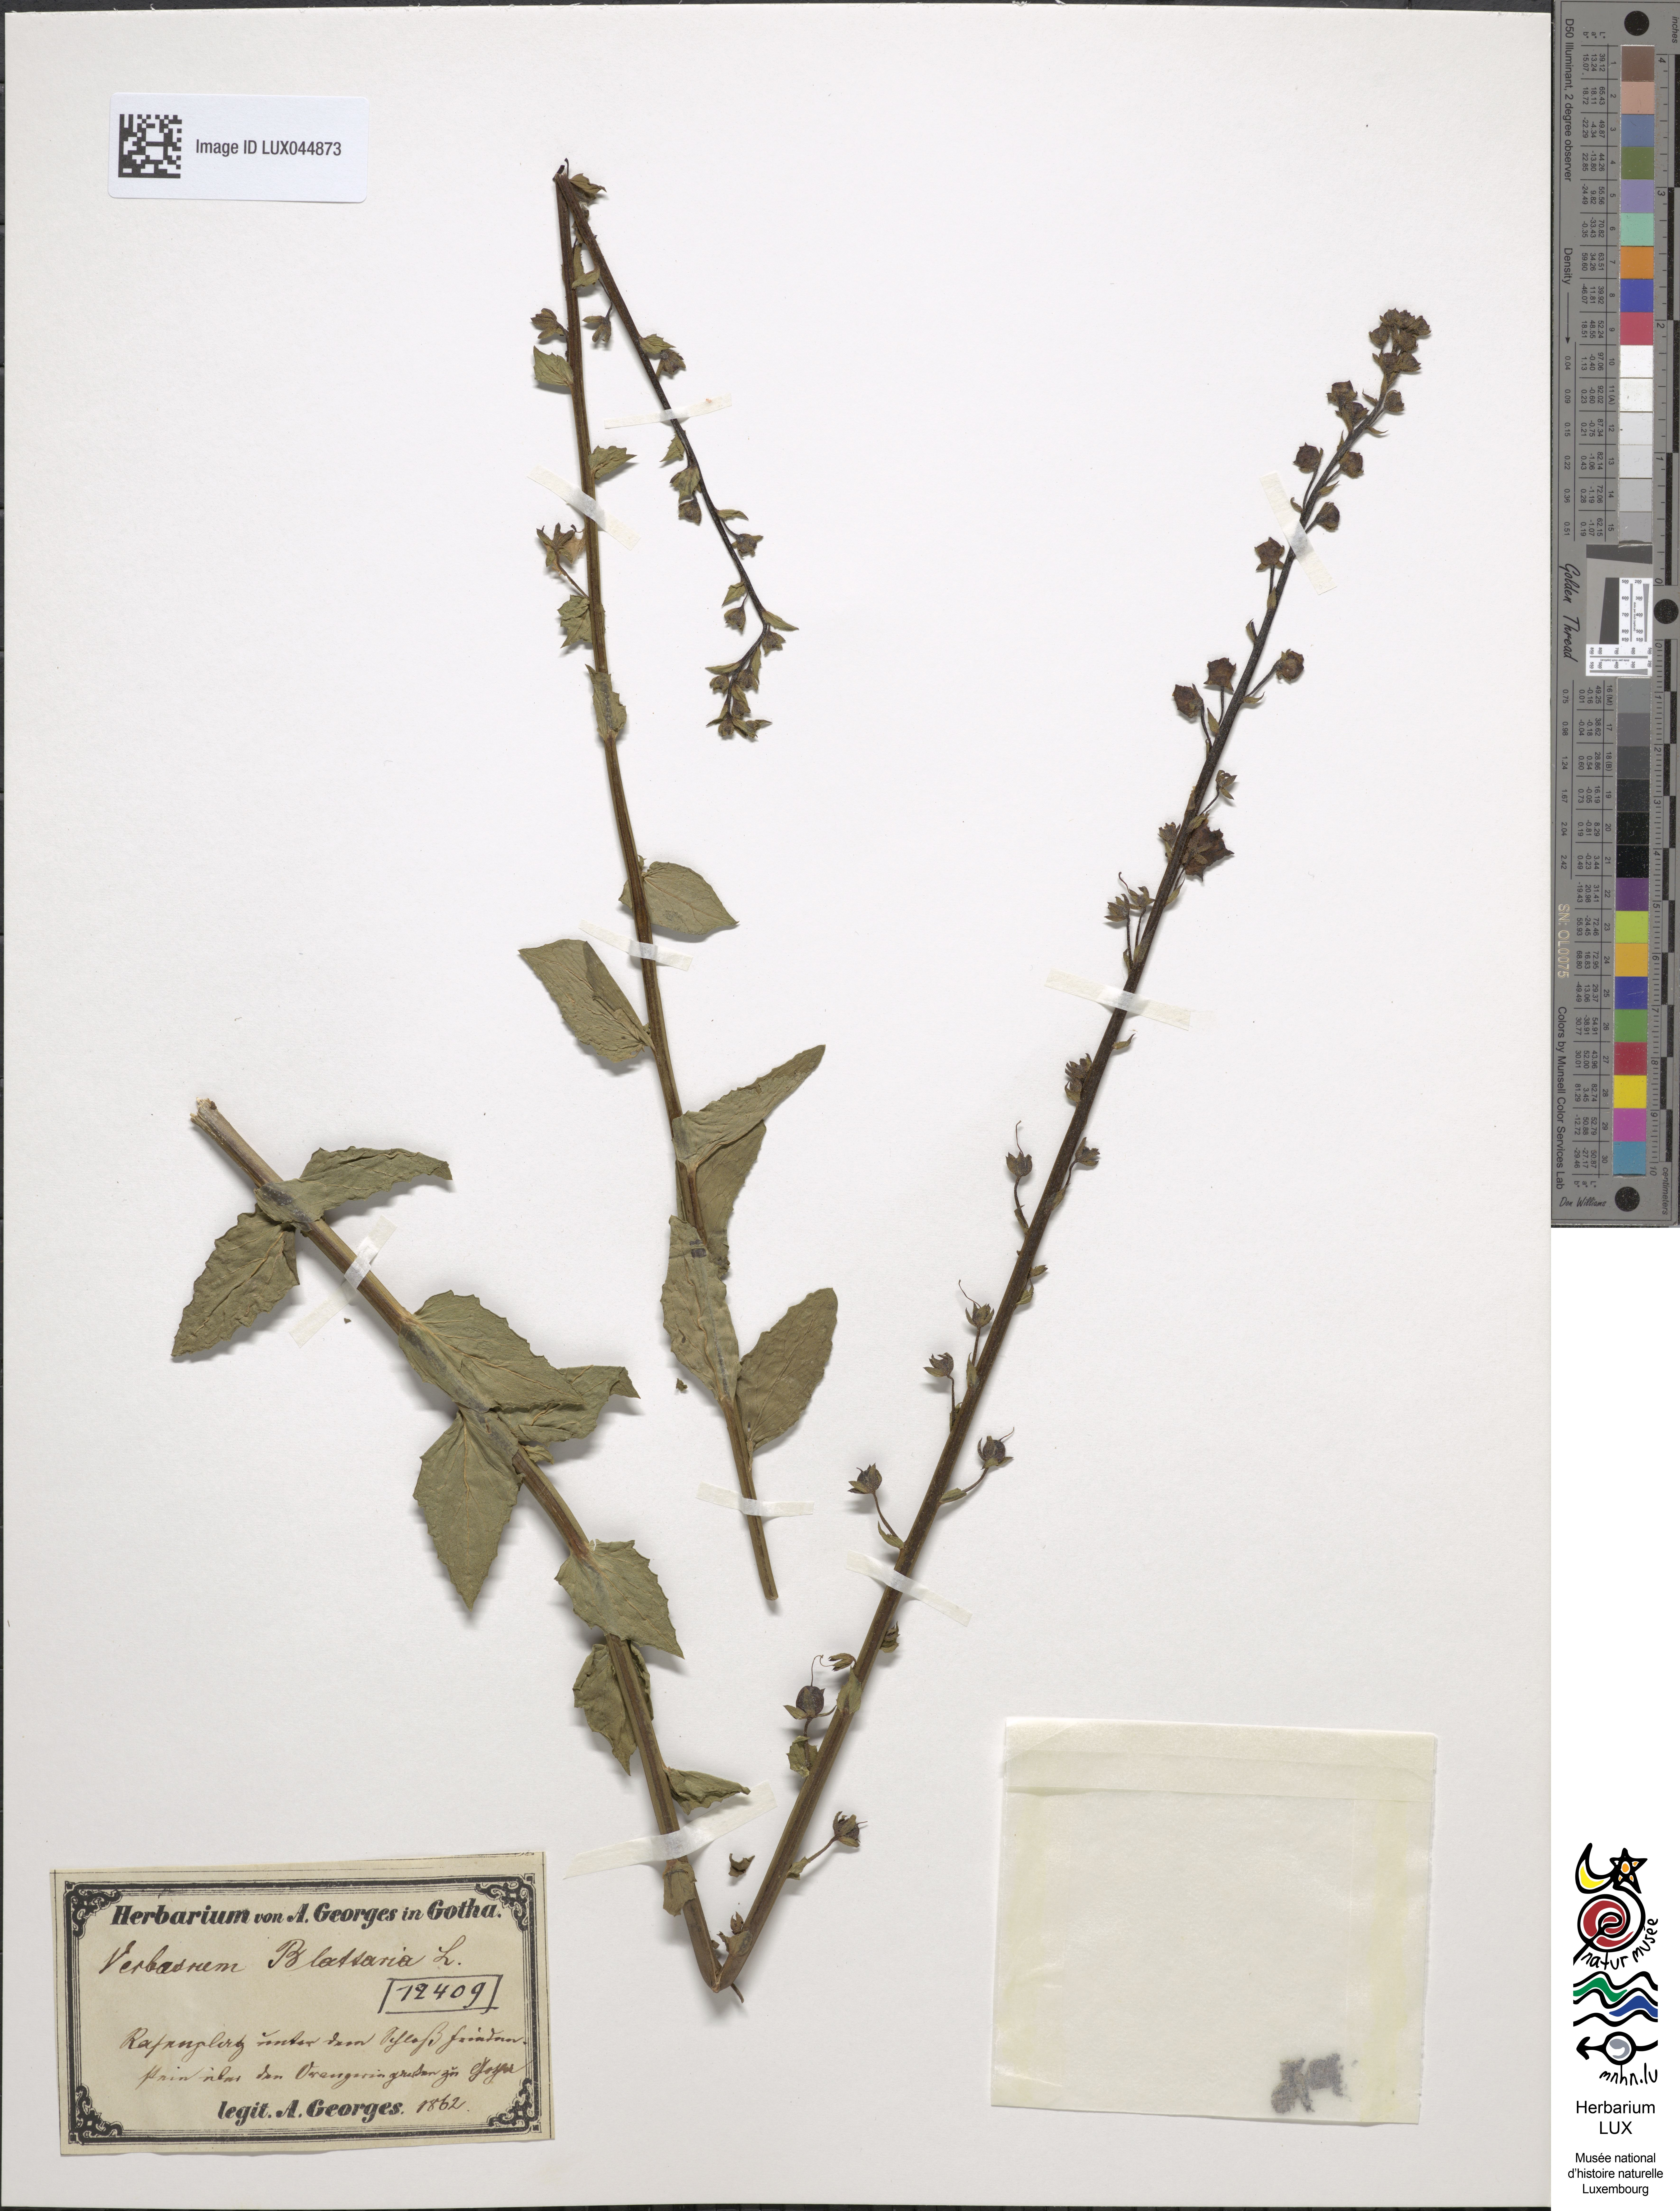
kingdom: Plantae
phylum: Tracheophyta
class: Magnoliopsida
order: Lamiales
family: Scrophulariaceae
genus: Verbascum
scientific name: Verbascum blattaria
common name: Moth mullein
